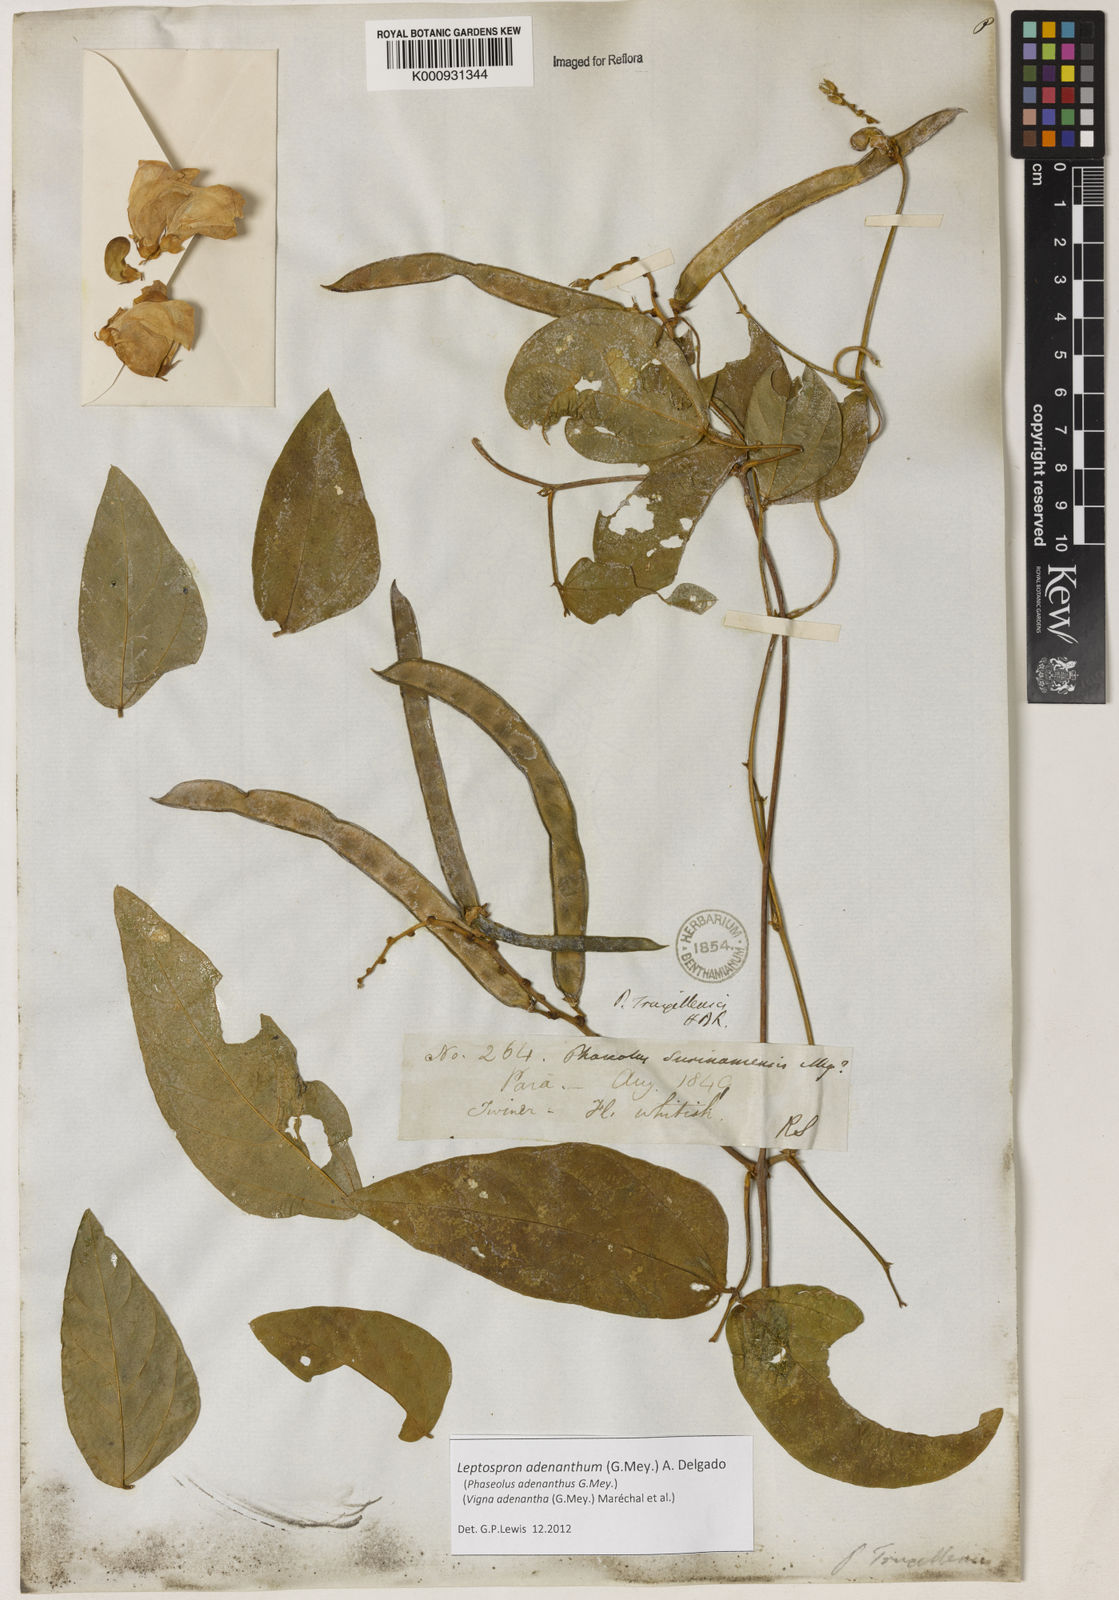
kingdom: Plantae
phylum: Tracheophyta
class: Magnoliopsida
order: Fabales
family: Fabaceae
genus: Leptospron
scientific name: Leptospron adenanthum
